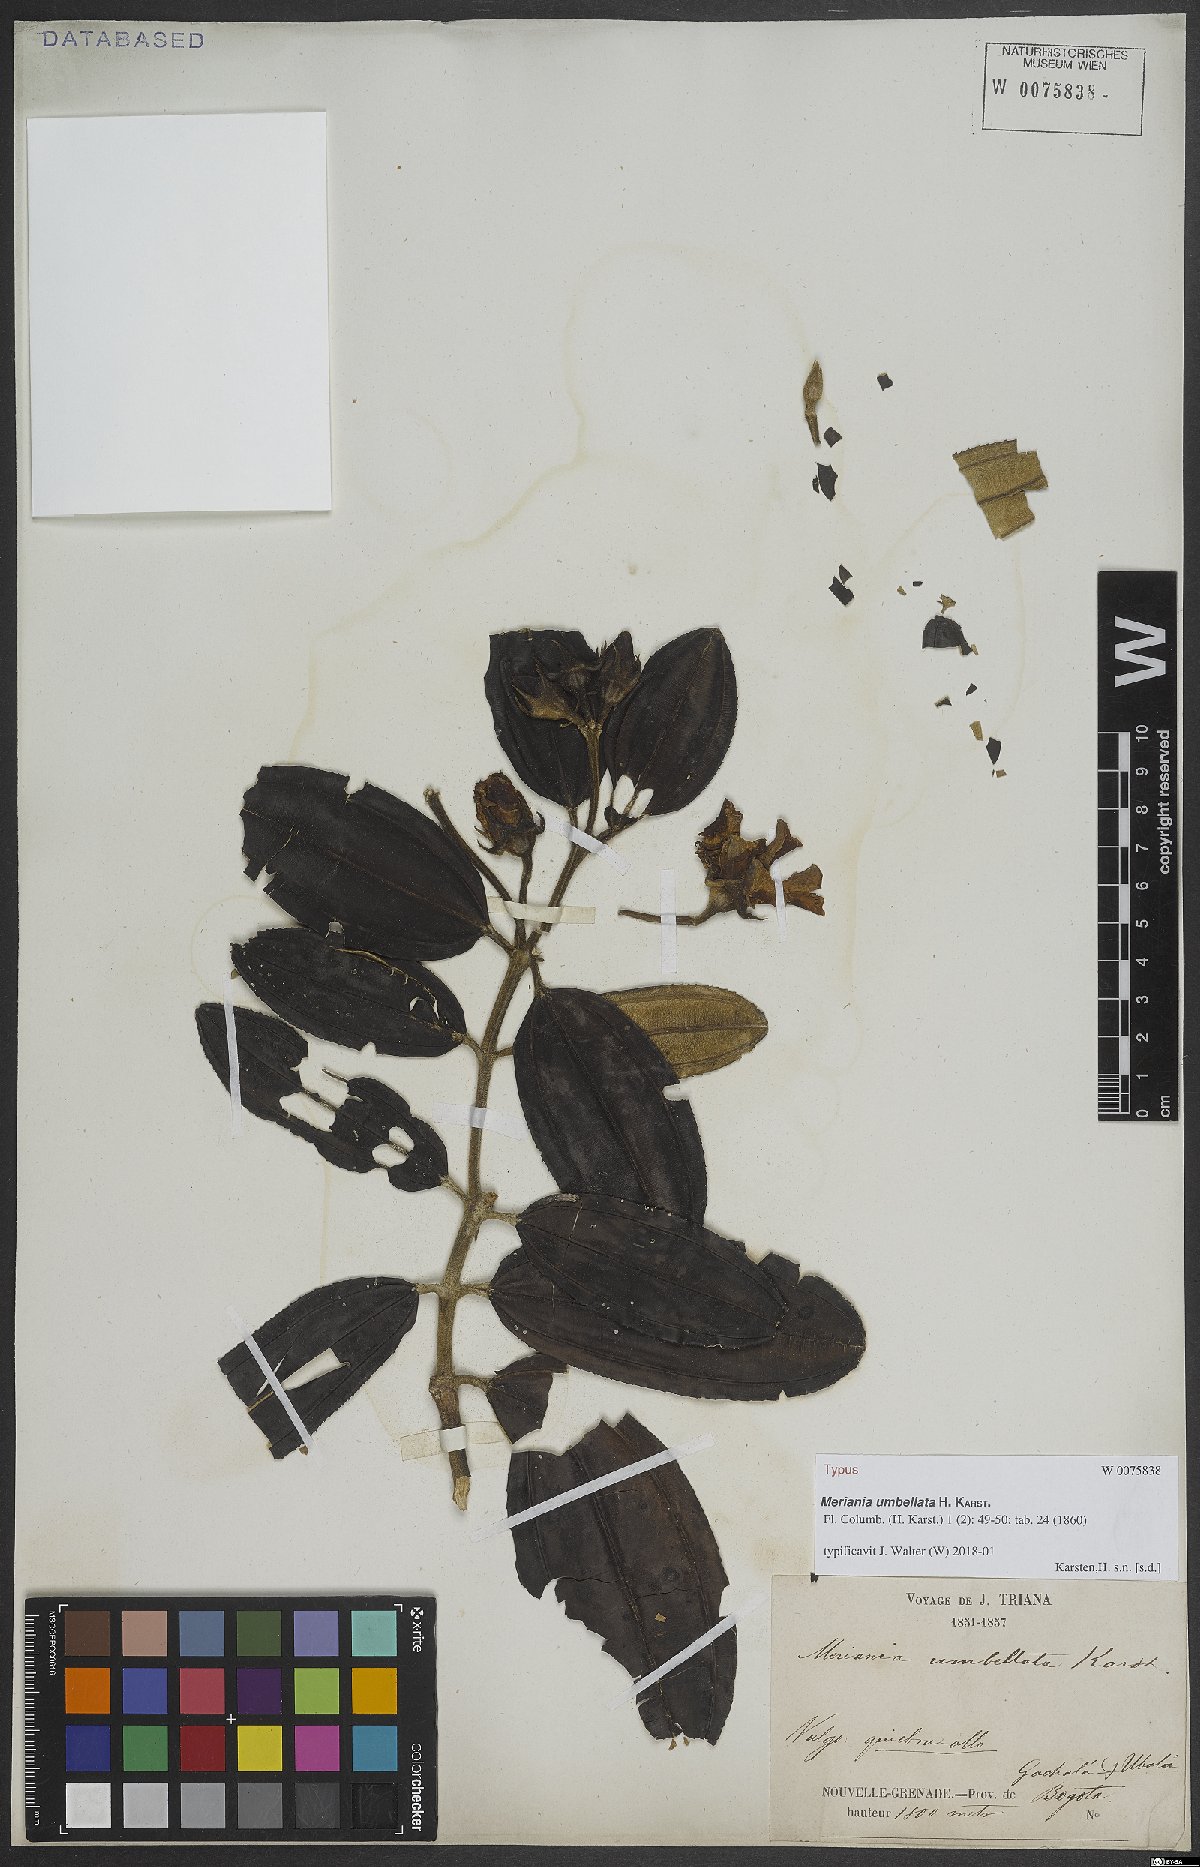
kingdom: Plantae
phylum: Tracheophyta
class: Magnoliopsida
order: Myrtales
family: Melastomataceae
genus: Meriania
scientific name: Meriania speciosa
